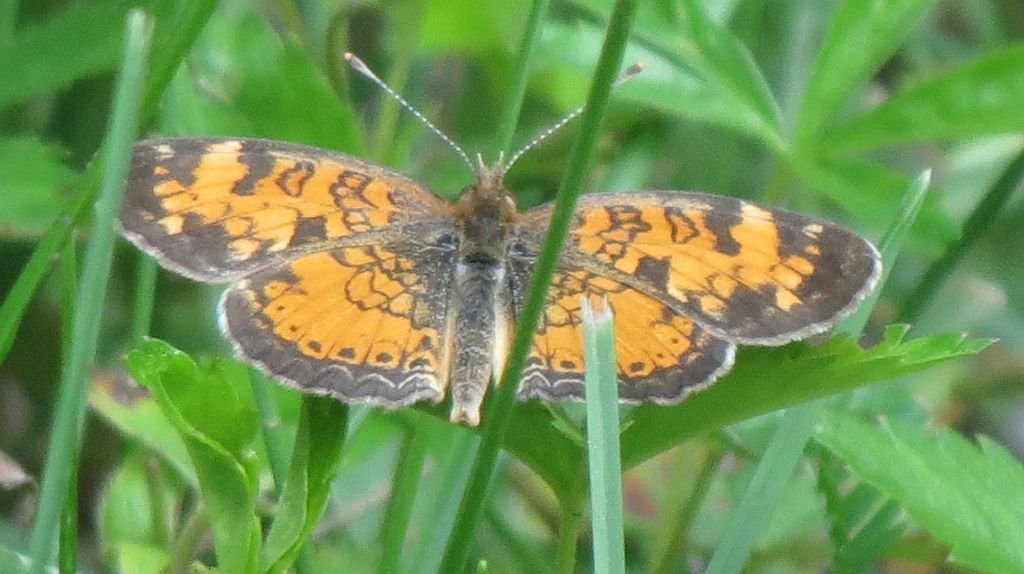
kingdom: Animalia
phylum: Arthropoda
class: Insecta
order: Lepidoptera
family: Nymphalidae
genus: Phyciodes
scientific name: Phyciodes tharos
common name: Northern Crescent
